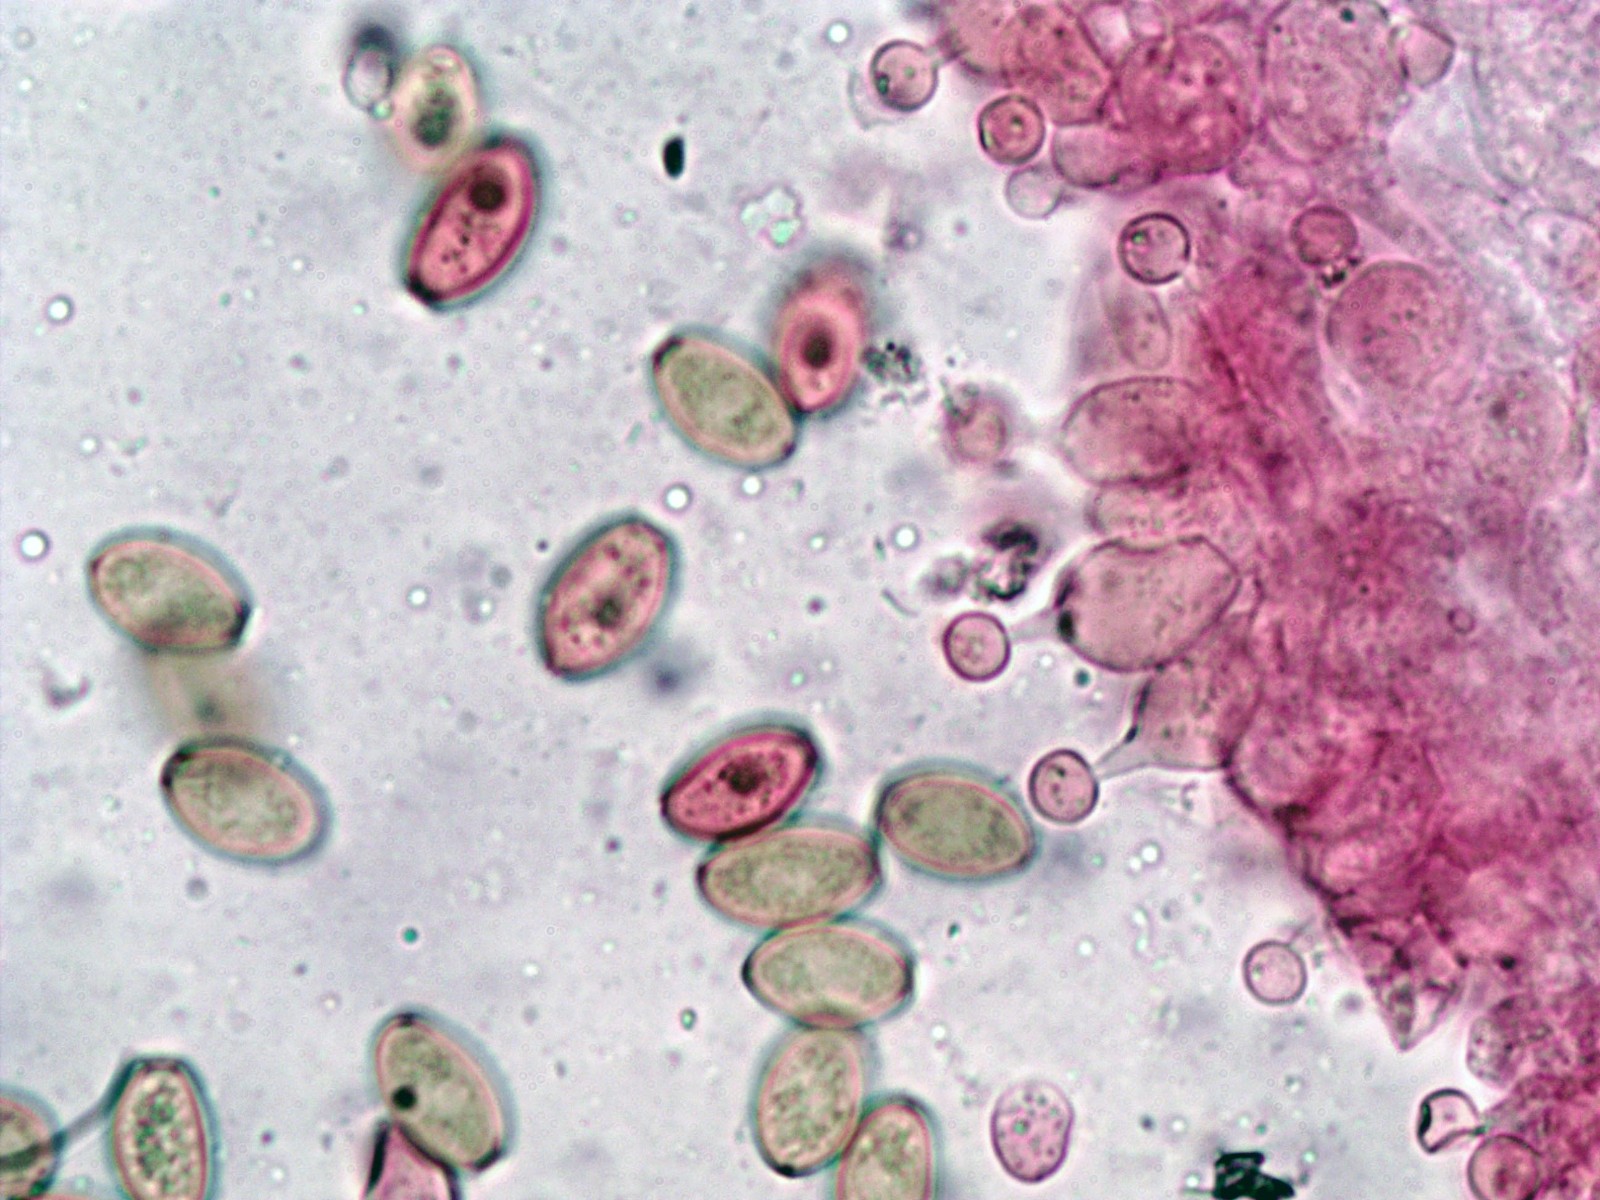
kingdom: Fungi
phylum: Basidiomycota
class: Agaricomycetes
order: Agaricales
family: Bolbitiaceae
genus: Conocybe
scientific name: Conocybe apala
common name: køllestokket keglehat
